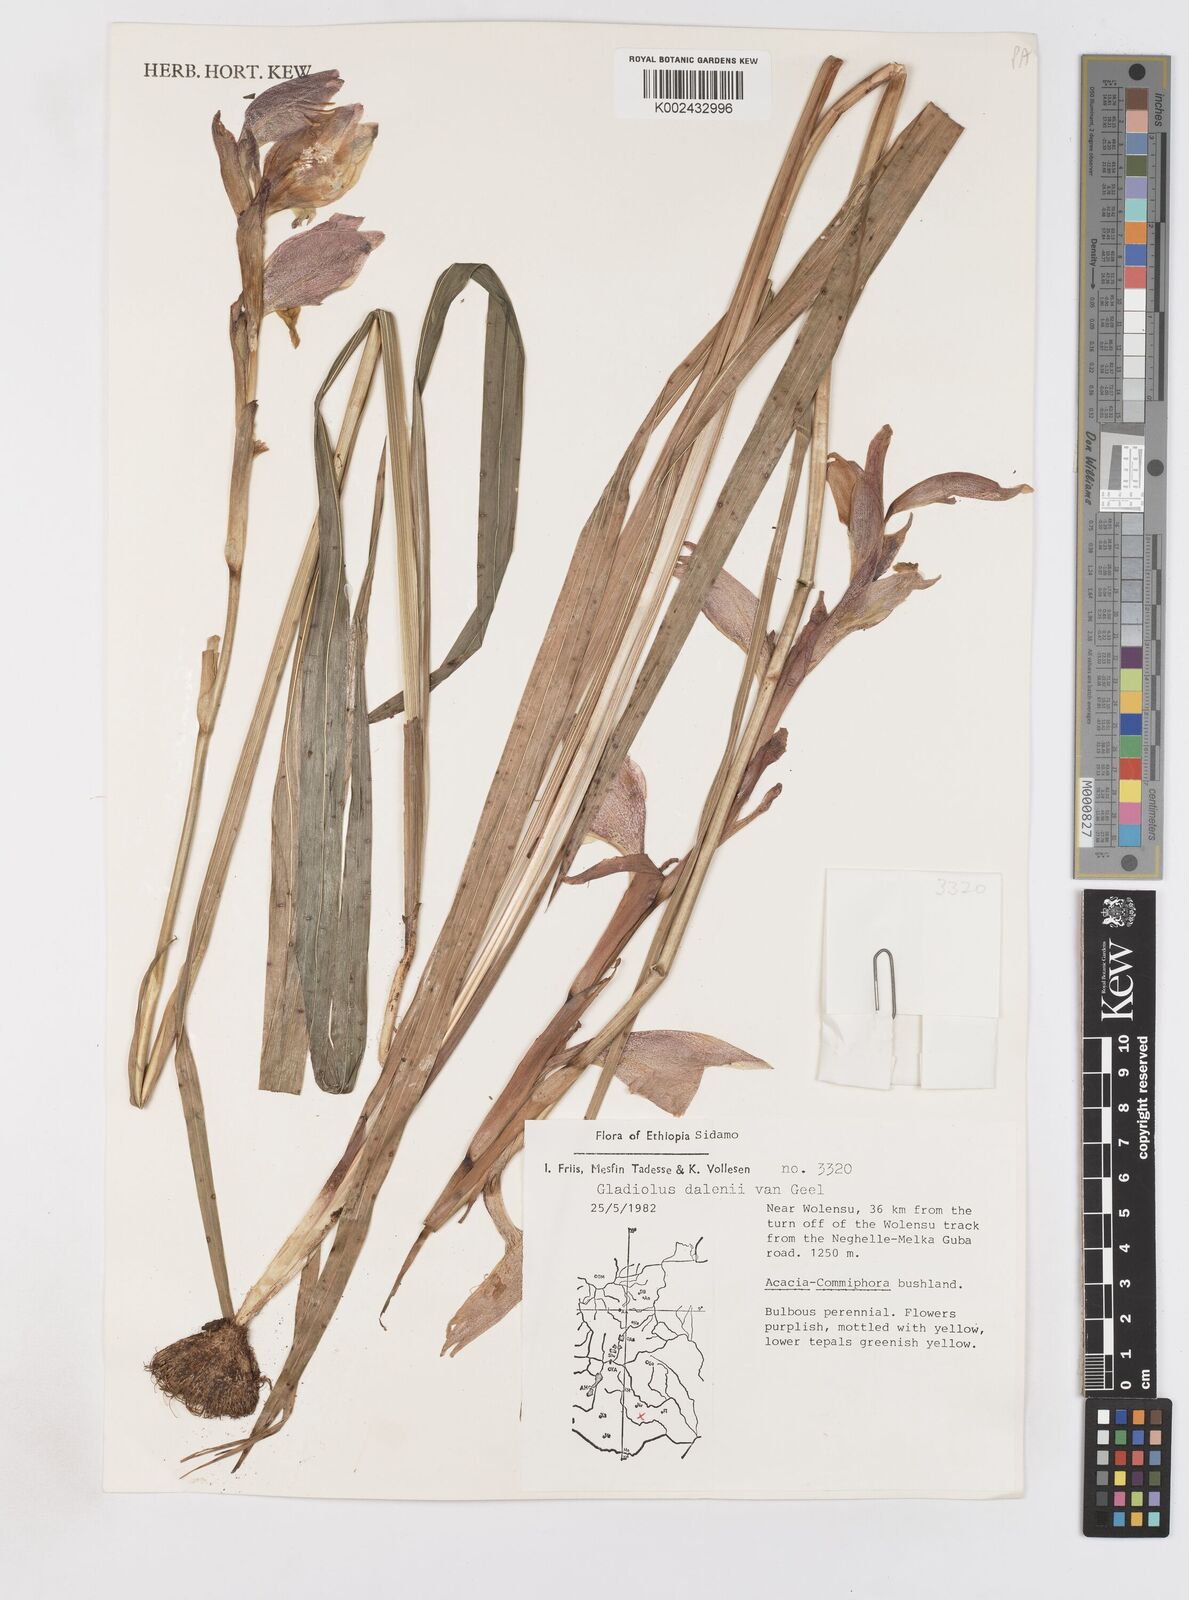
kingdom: Plantae
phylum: Tracheophyta
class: Liliopsida
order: Asparagales
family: Iridaceae
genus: Gladiolus
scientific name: Gladiolus dalenii
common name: Cornflag
